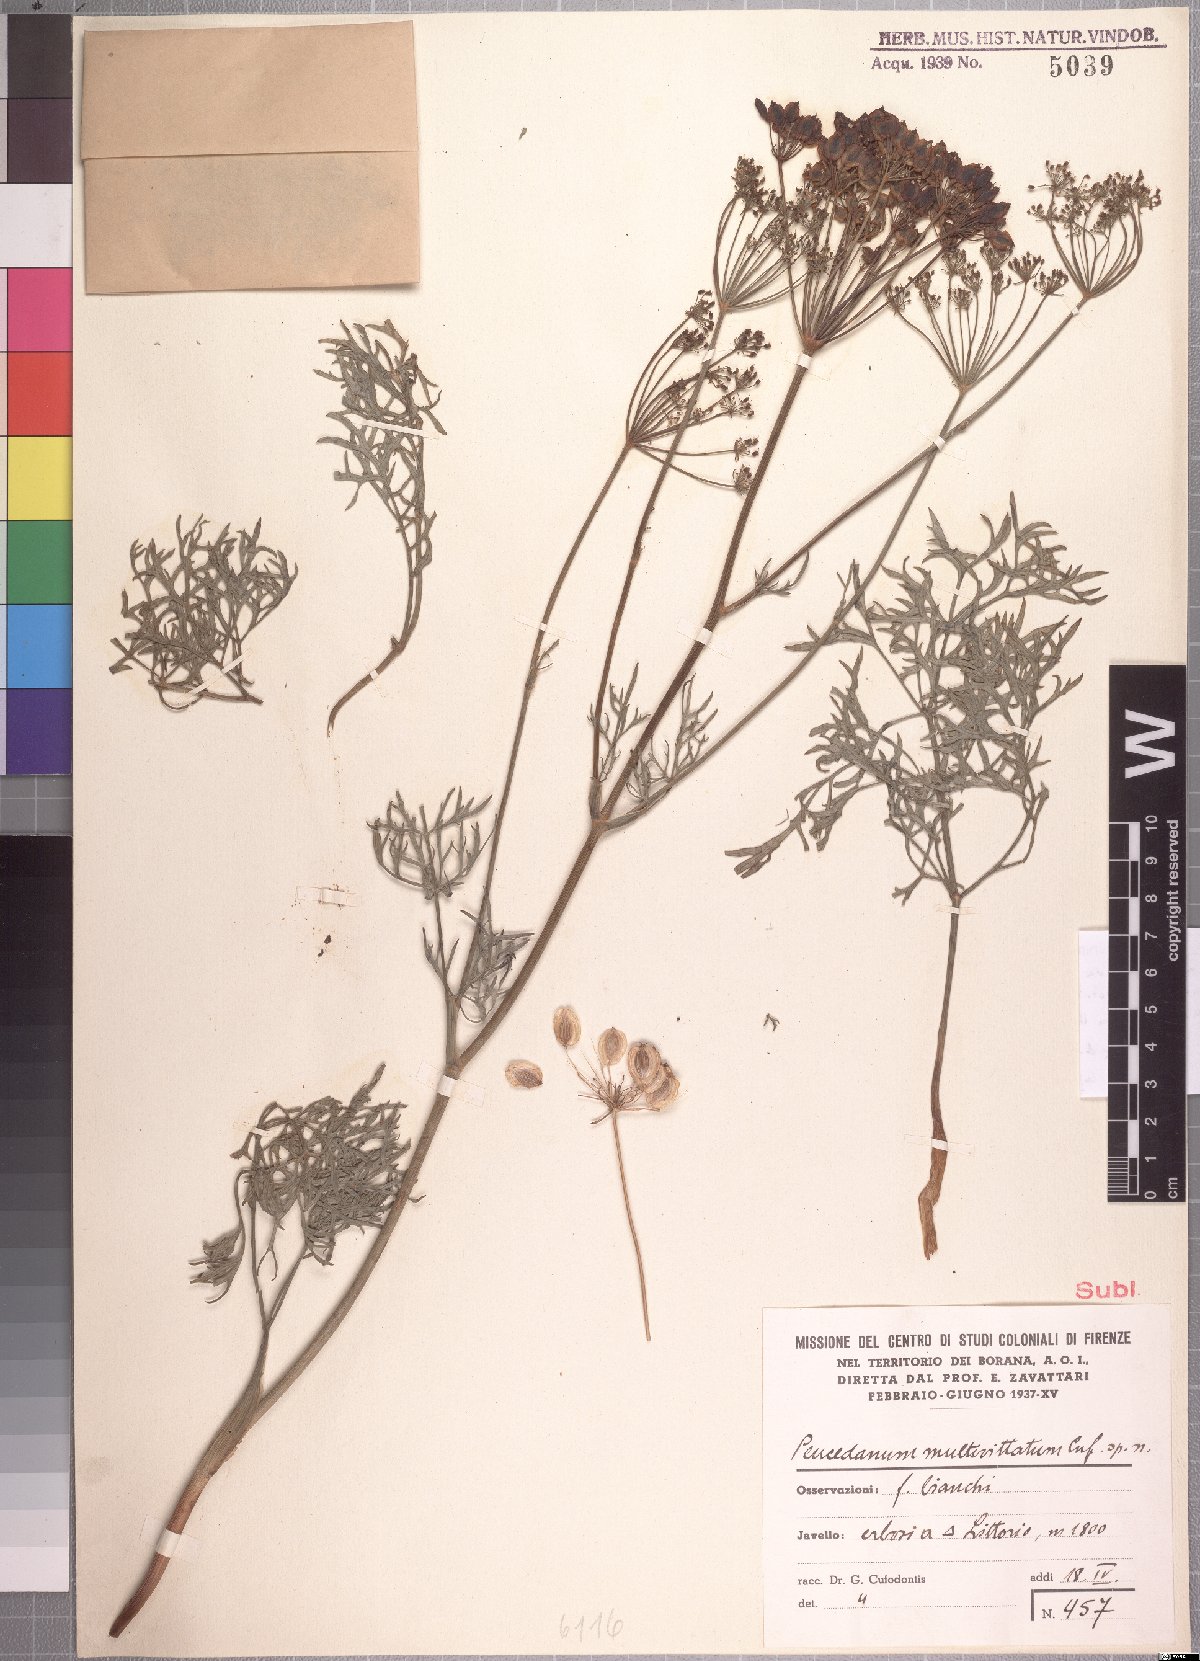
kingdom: Plantae
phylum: Tracheophyta
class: Magnoliopsida
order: Apiales
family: Apiaceae
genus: Afrosciadium
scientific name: Afrosciadium harmsianum
